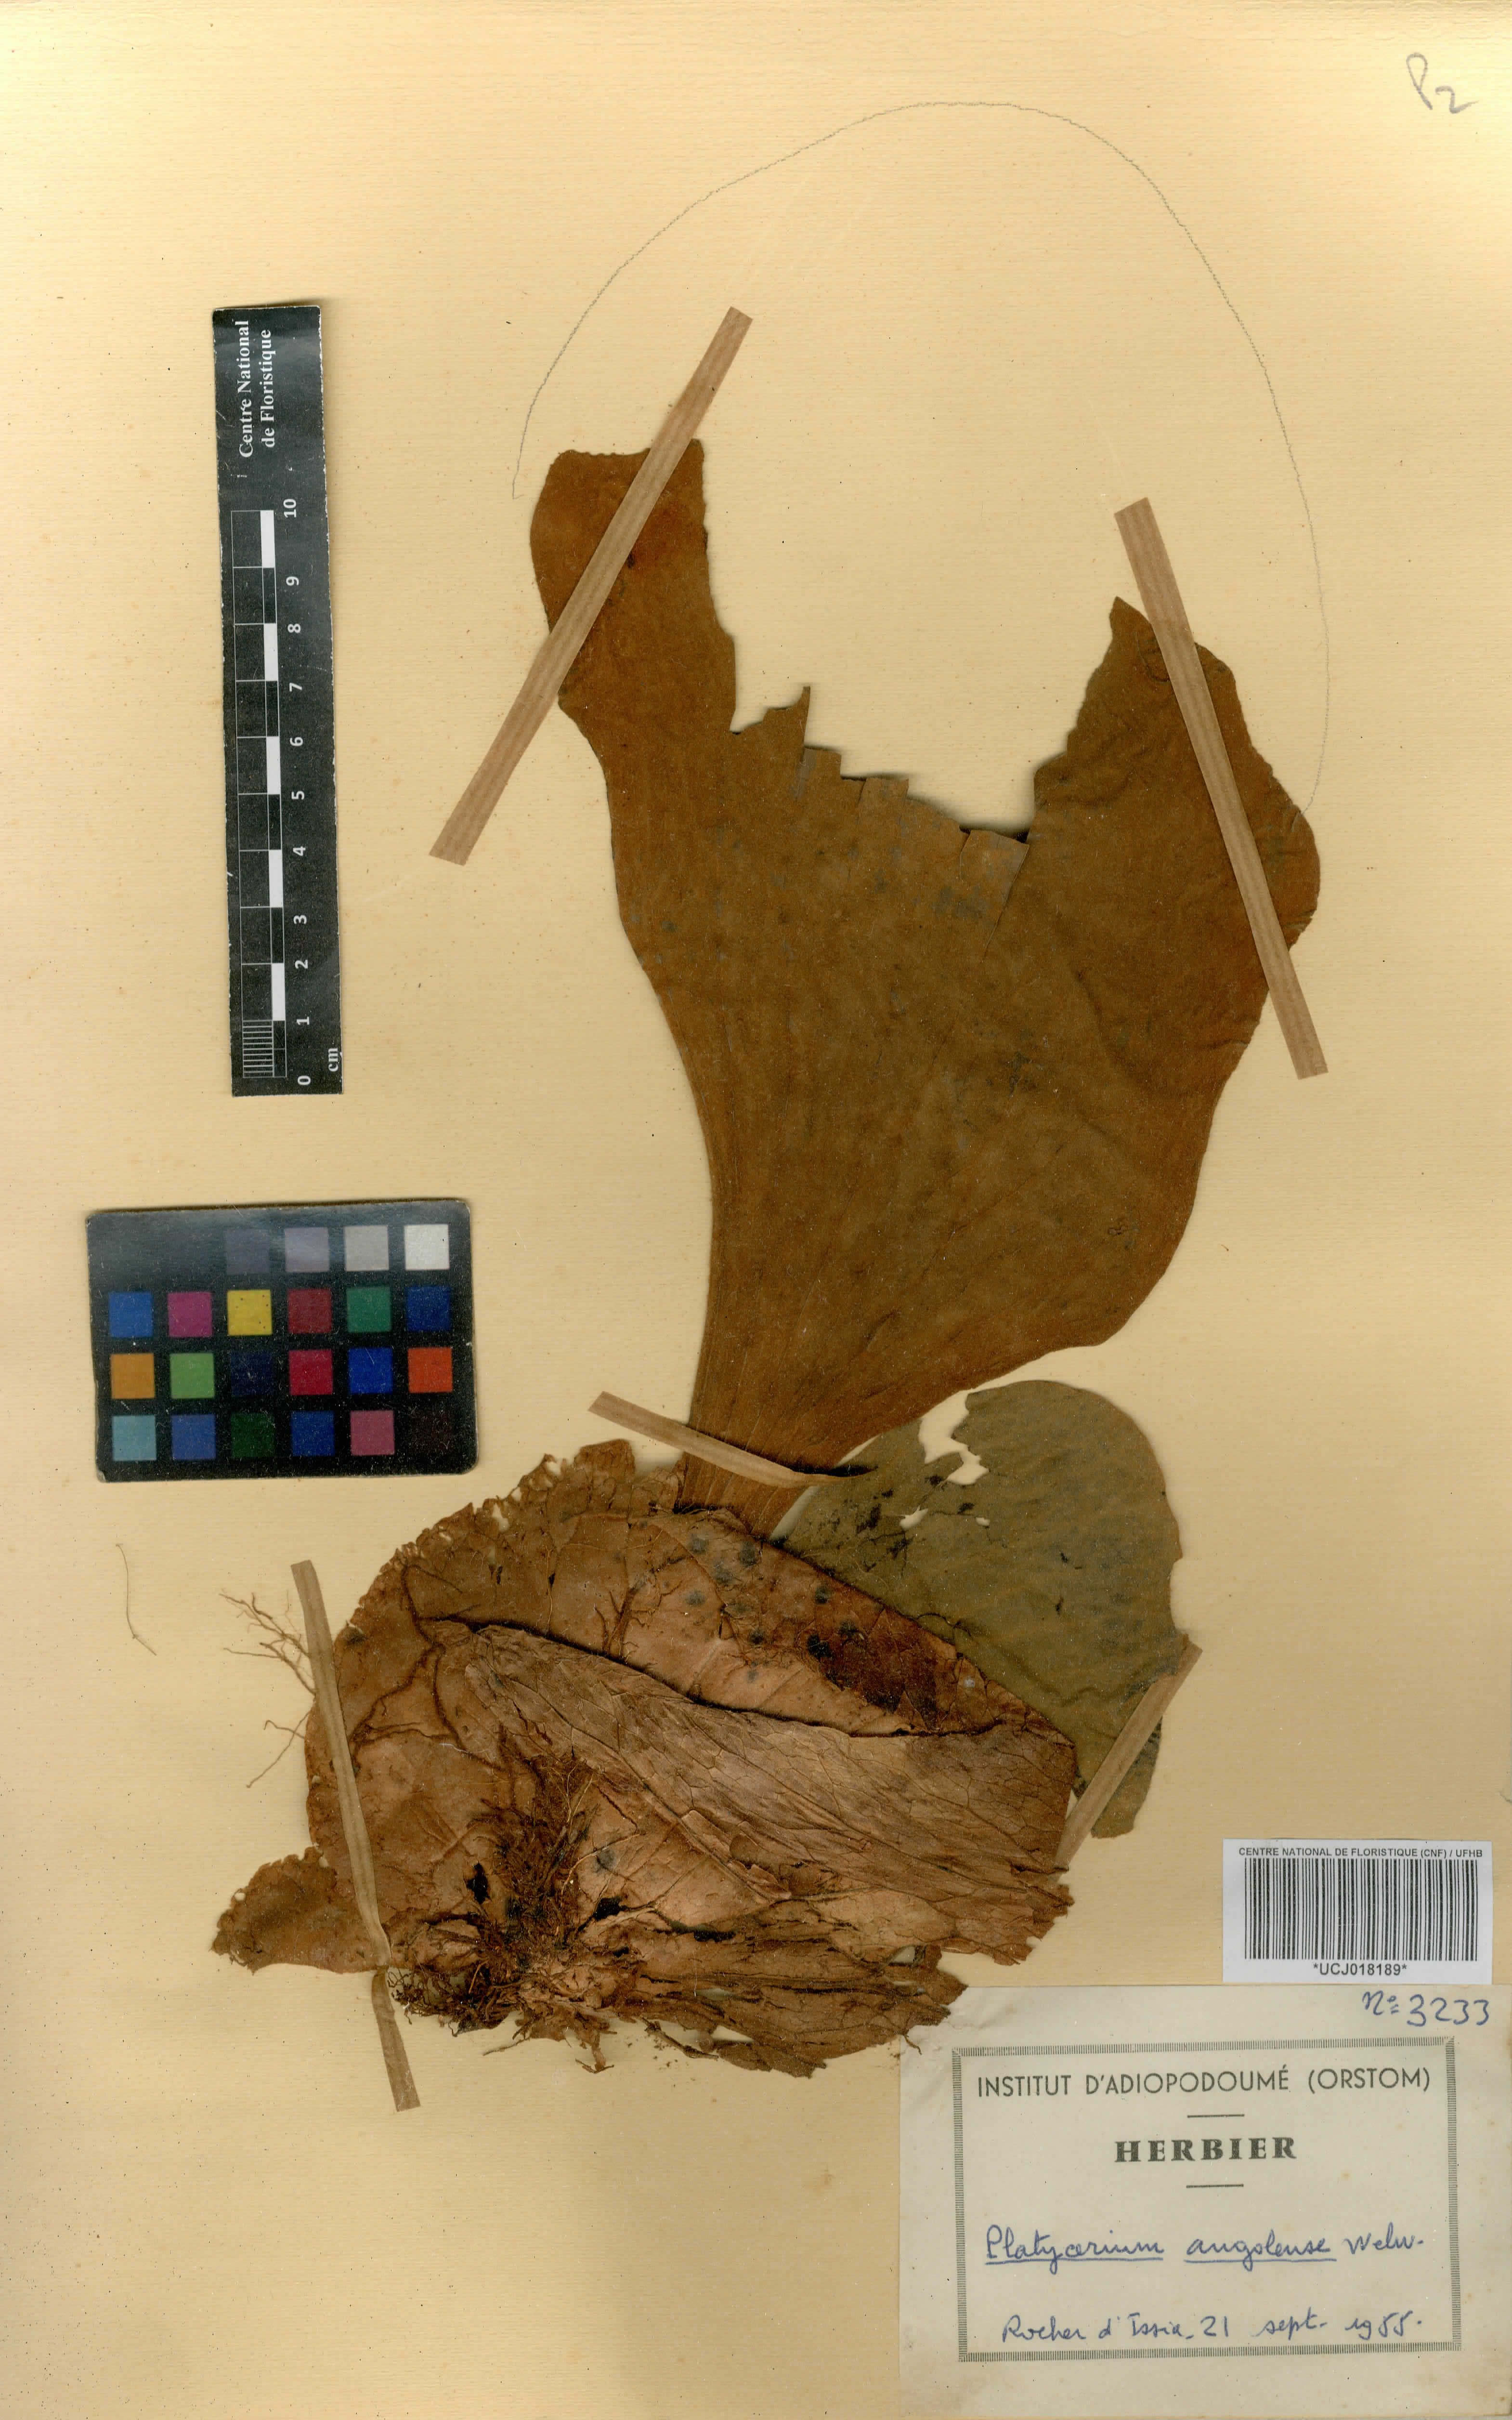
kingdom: Plantae
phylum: Tracheophyta
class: Polypodiopsida
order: Polypodiales
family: Polypodiaceae
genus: Platycerium
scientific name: Platycerium elephantotis
